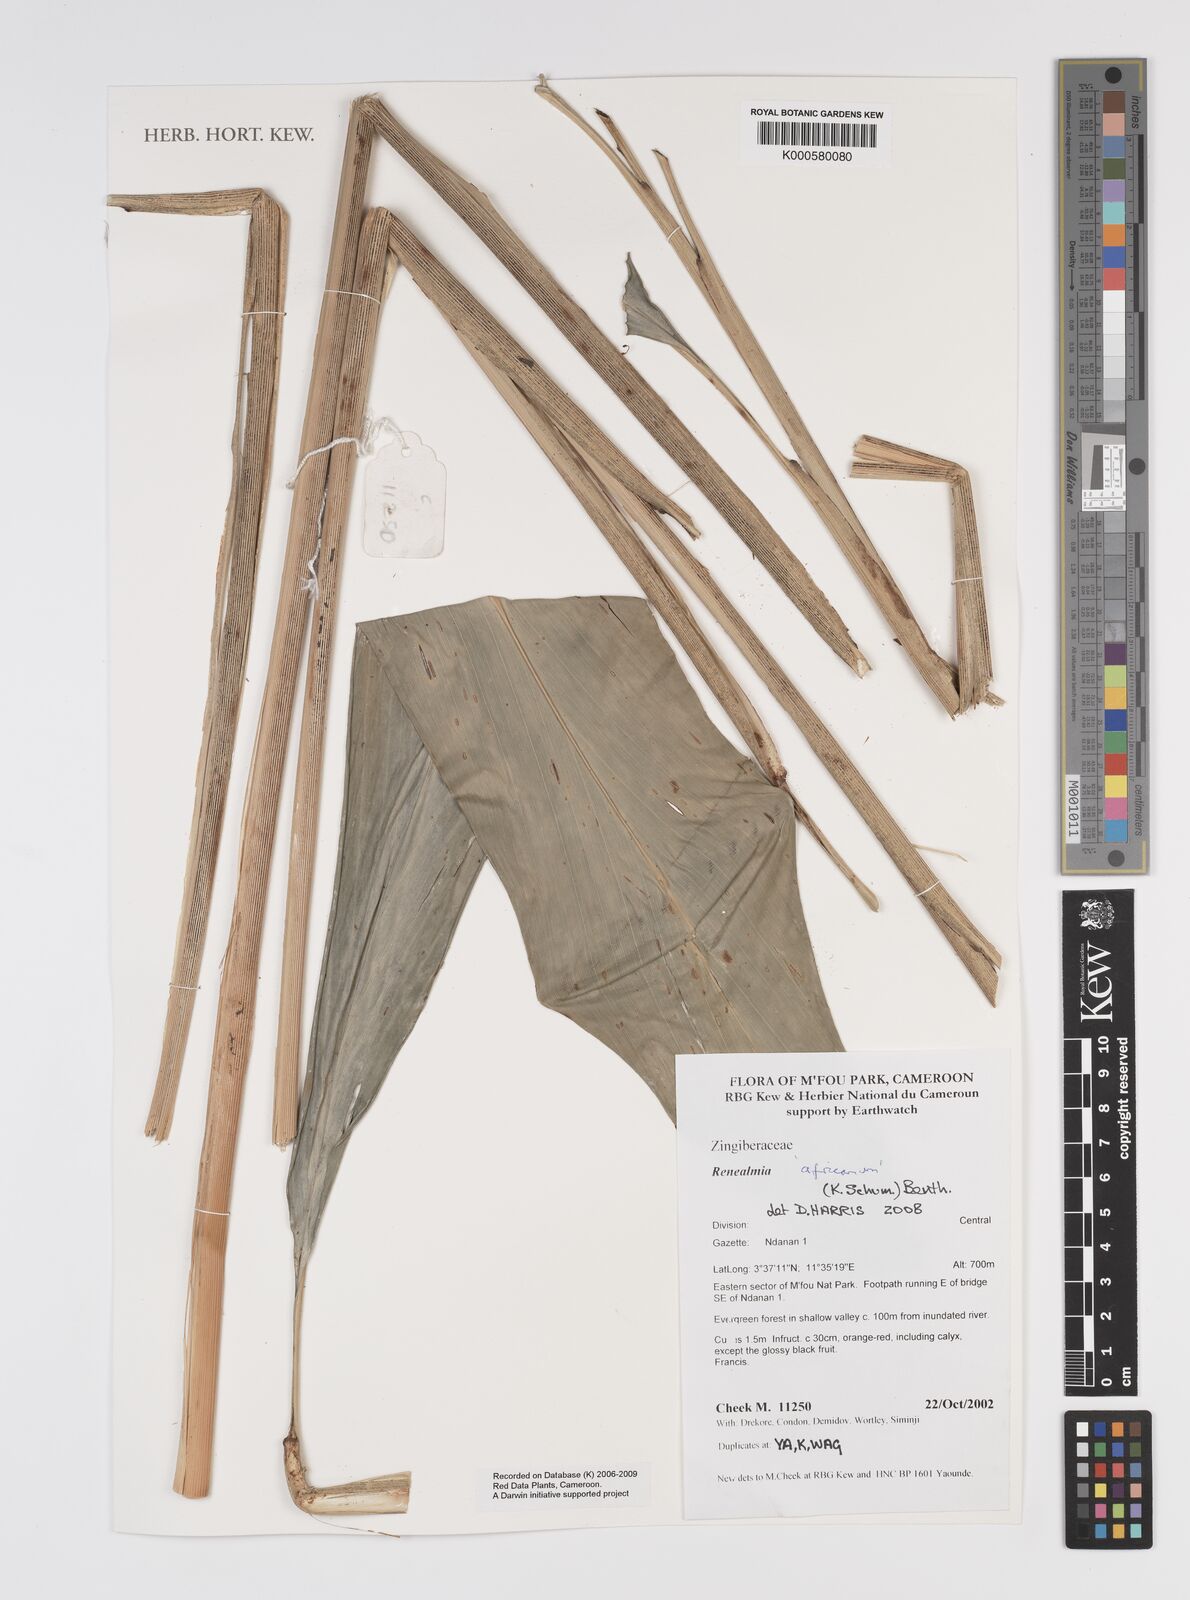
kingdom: Plantae
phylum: Tracheophyta
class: Liliopsida
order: Zingiberales
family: Zingiberaceae
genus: Renealmia
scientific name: Renealmia africana
